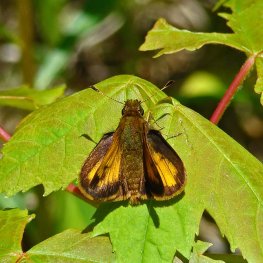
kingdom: Animalia
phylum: Arthropoda
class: Insecta
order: Lepidoptera
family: Hesperiidae
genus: Lon
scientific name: Lon hobomok
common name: Hobomok Skipper
